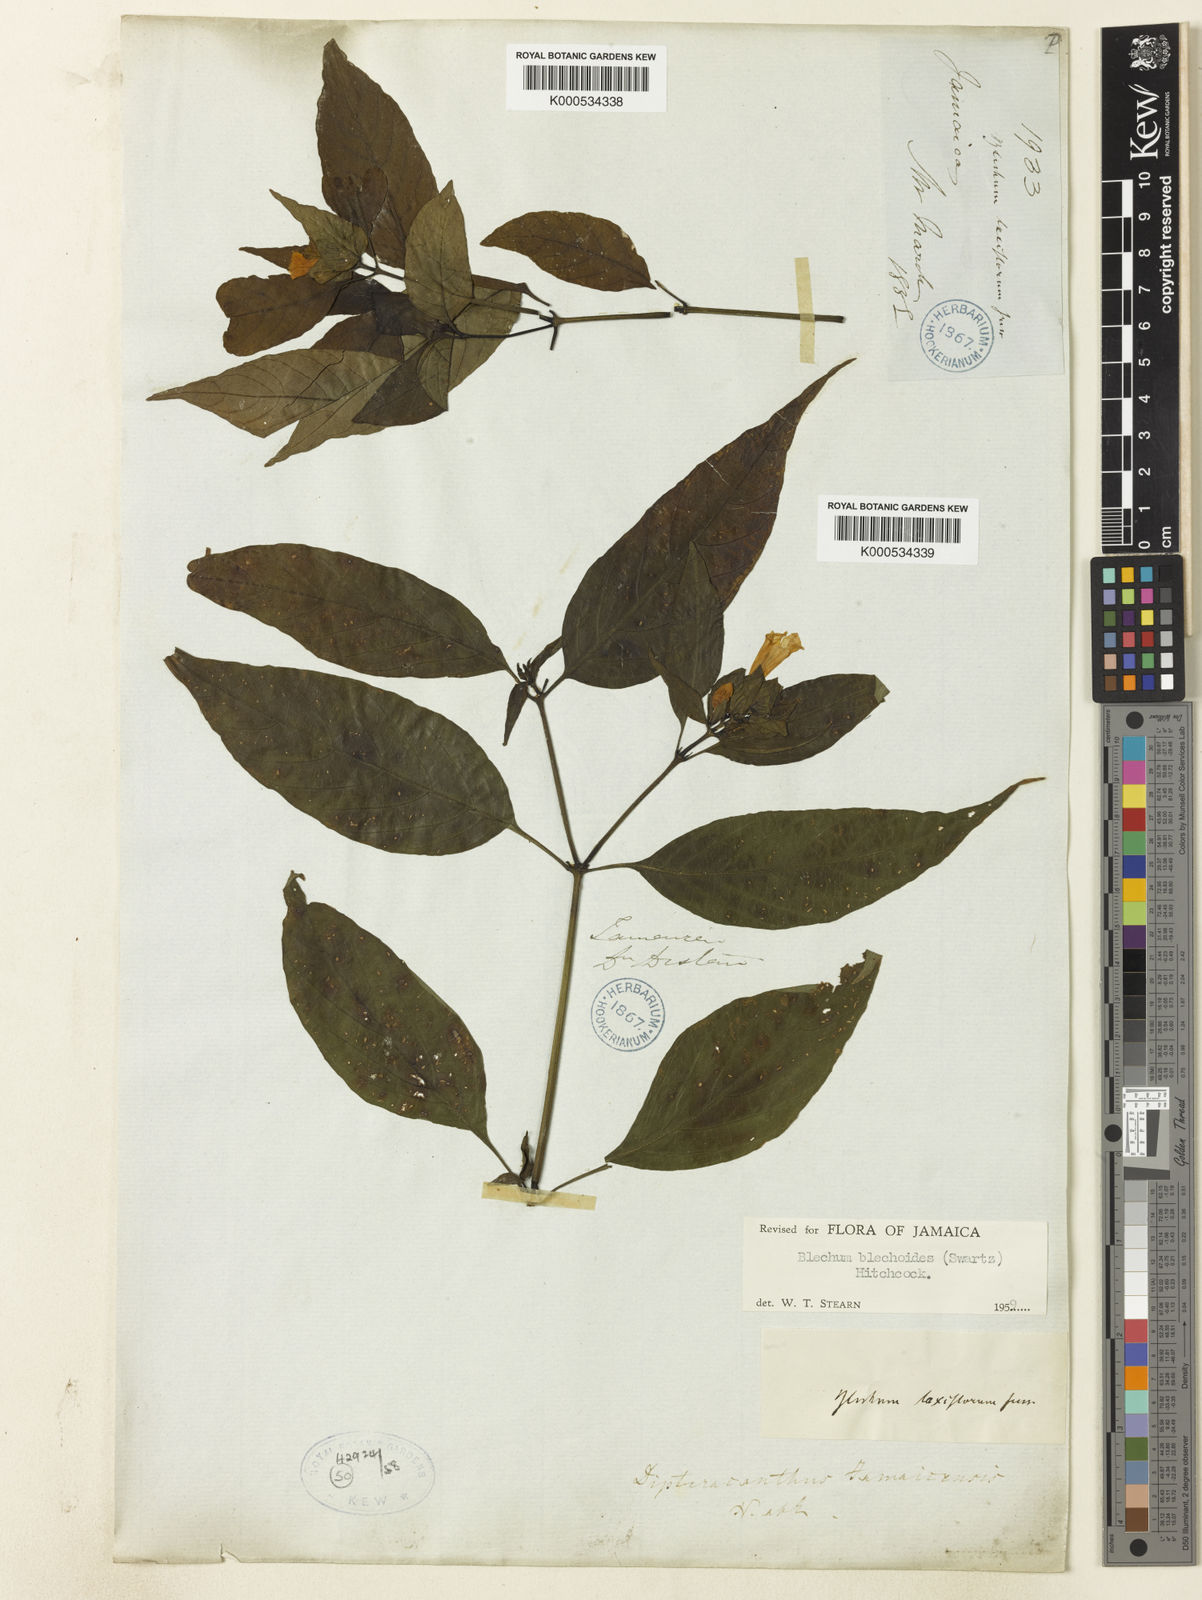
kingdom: Plantae
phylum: Tracheophyta
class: Magnoliopsida
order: Lamiales
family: Acanthaceae
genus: Ruellia
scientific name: Ruellia blechioides
